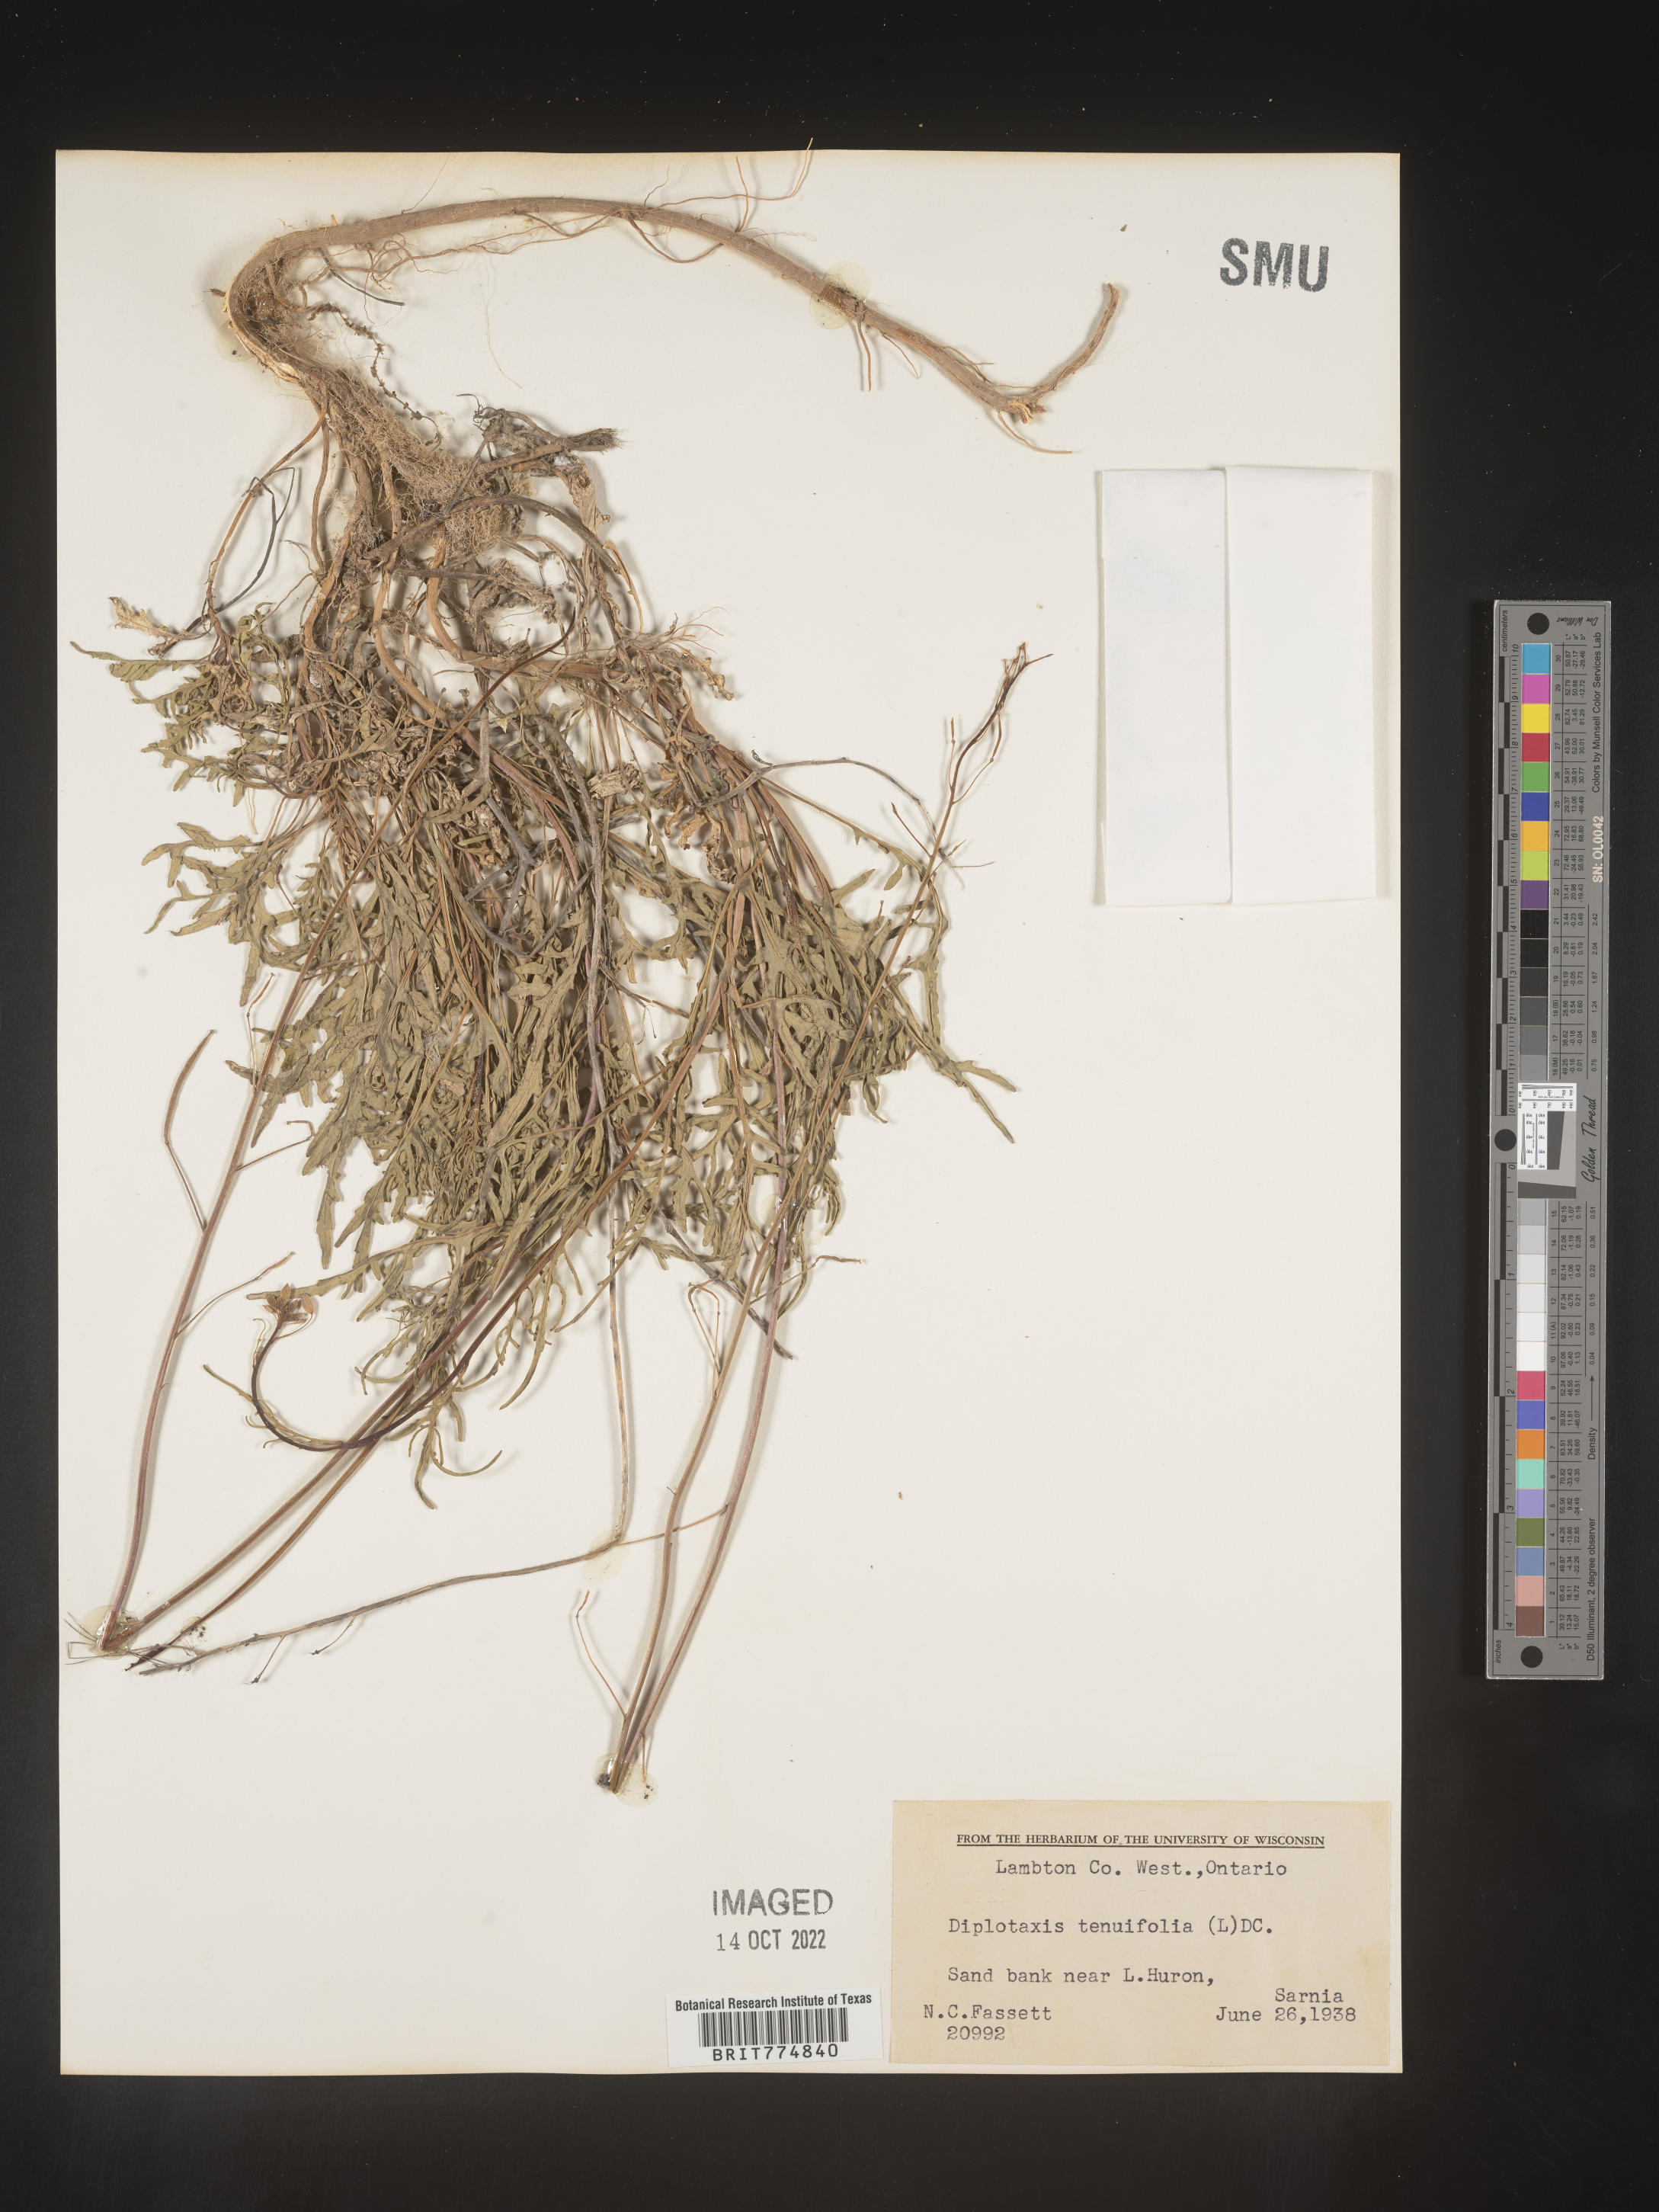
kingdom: Plantae
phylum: Tracheophyta
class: Magnoliopsida
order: Brassicales
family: Brassicaceae
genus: Diplotaxis
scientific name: Diplotaxis
